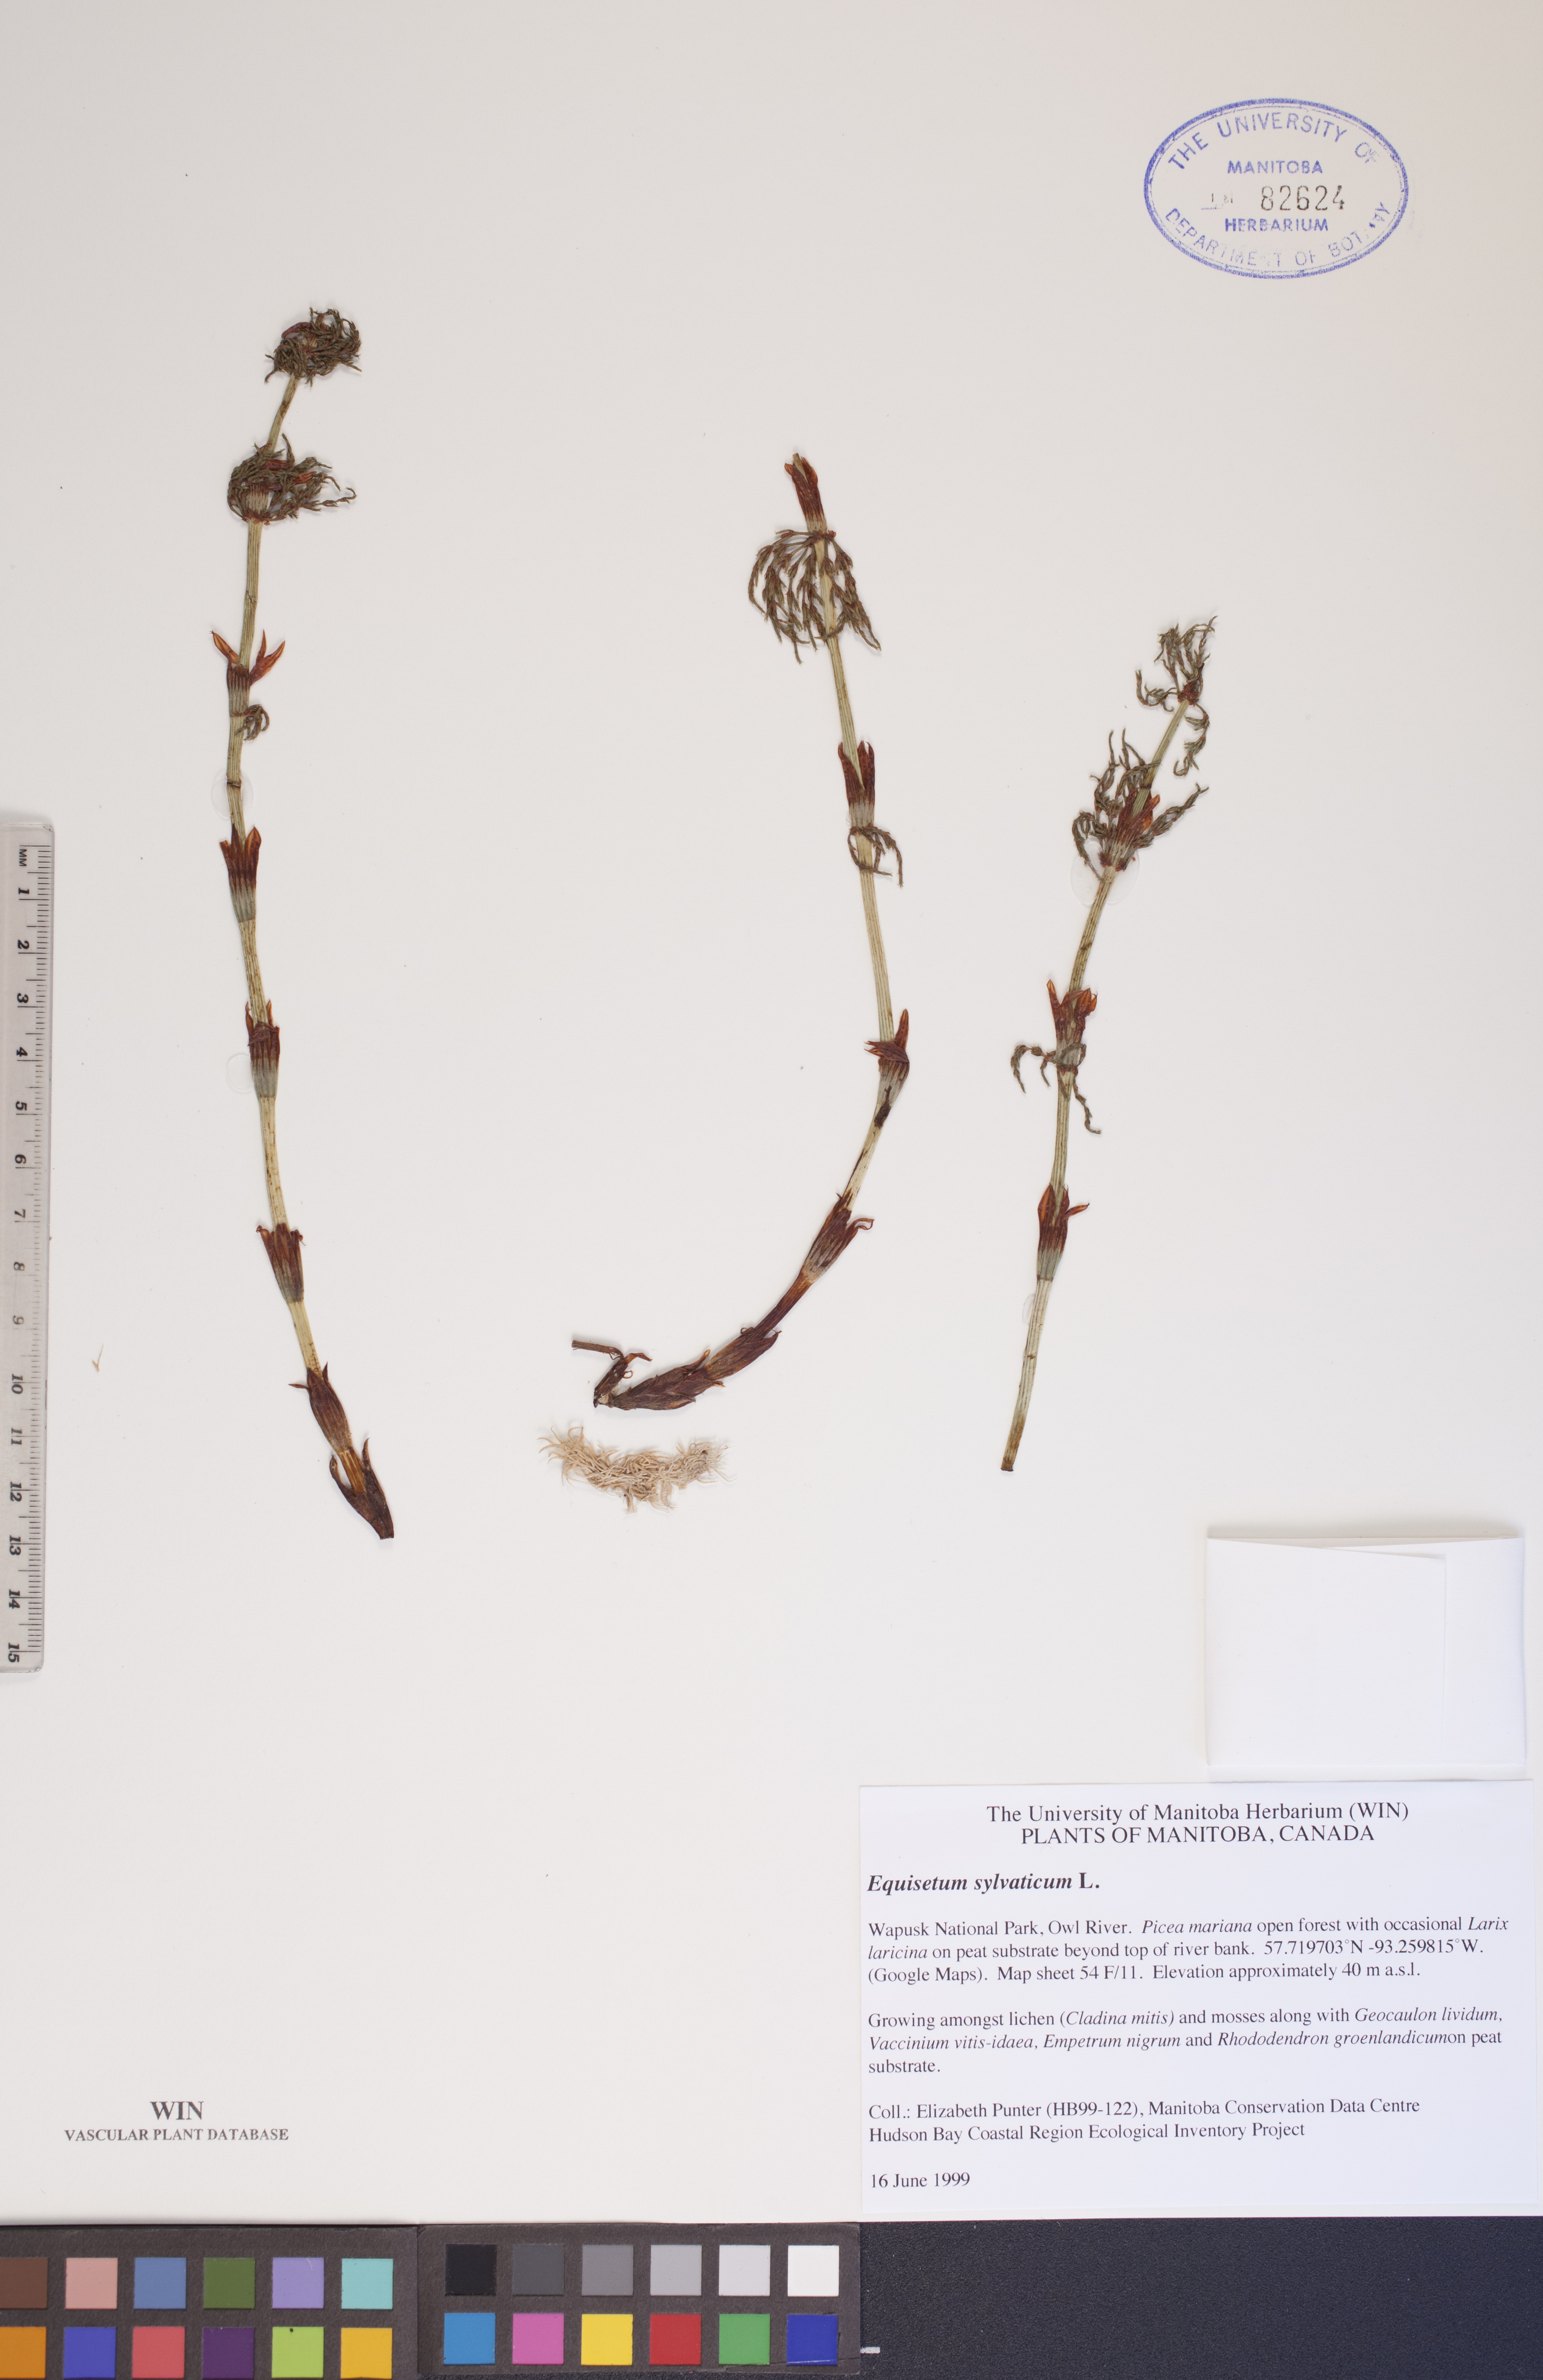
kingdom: Plantae
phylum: Tracheophyta
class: Polypodiopsida
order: Equisetales
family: Equisetaceae
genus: Equisetum
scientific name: Equisetum sylvaticum
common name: Wood horsetail
